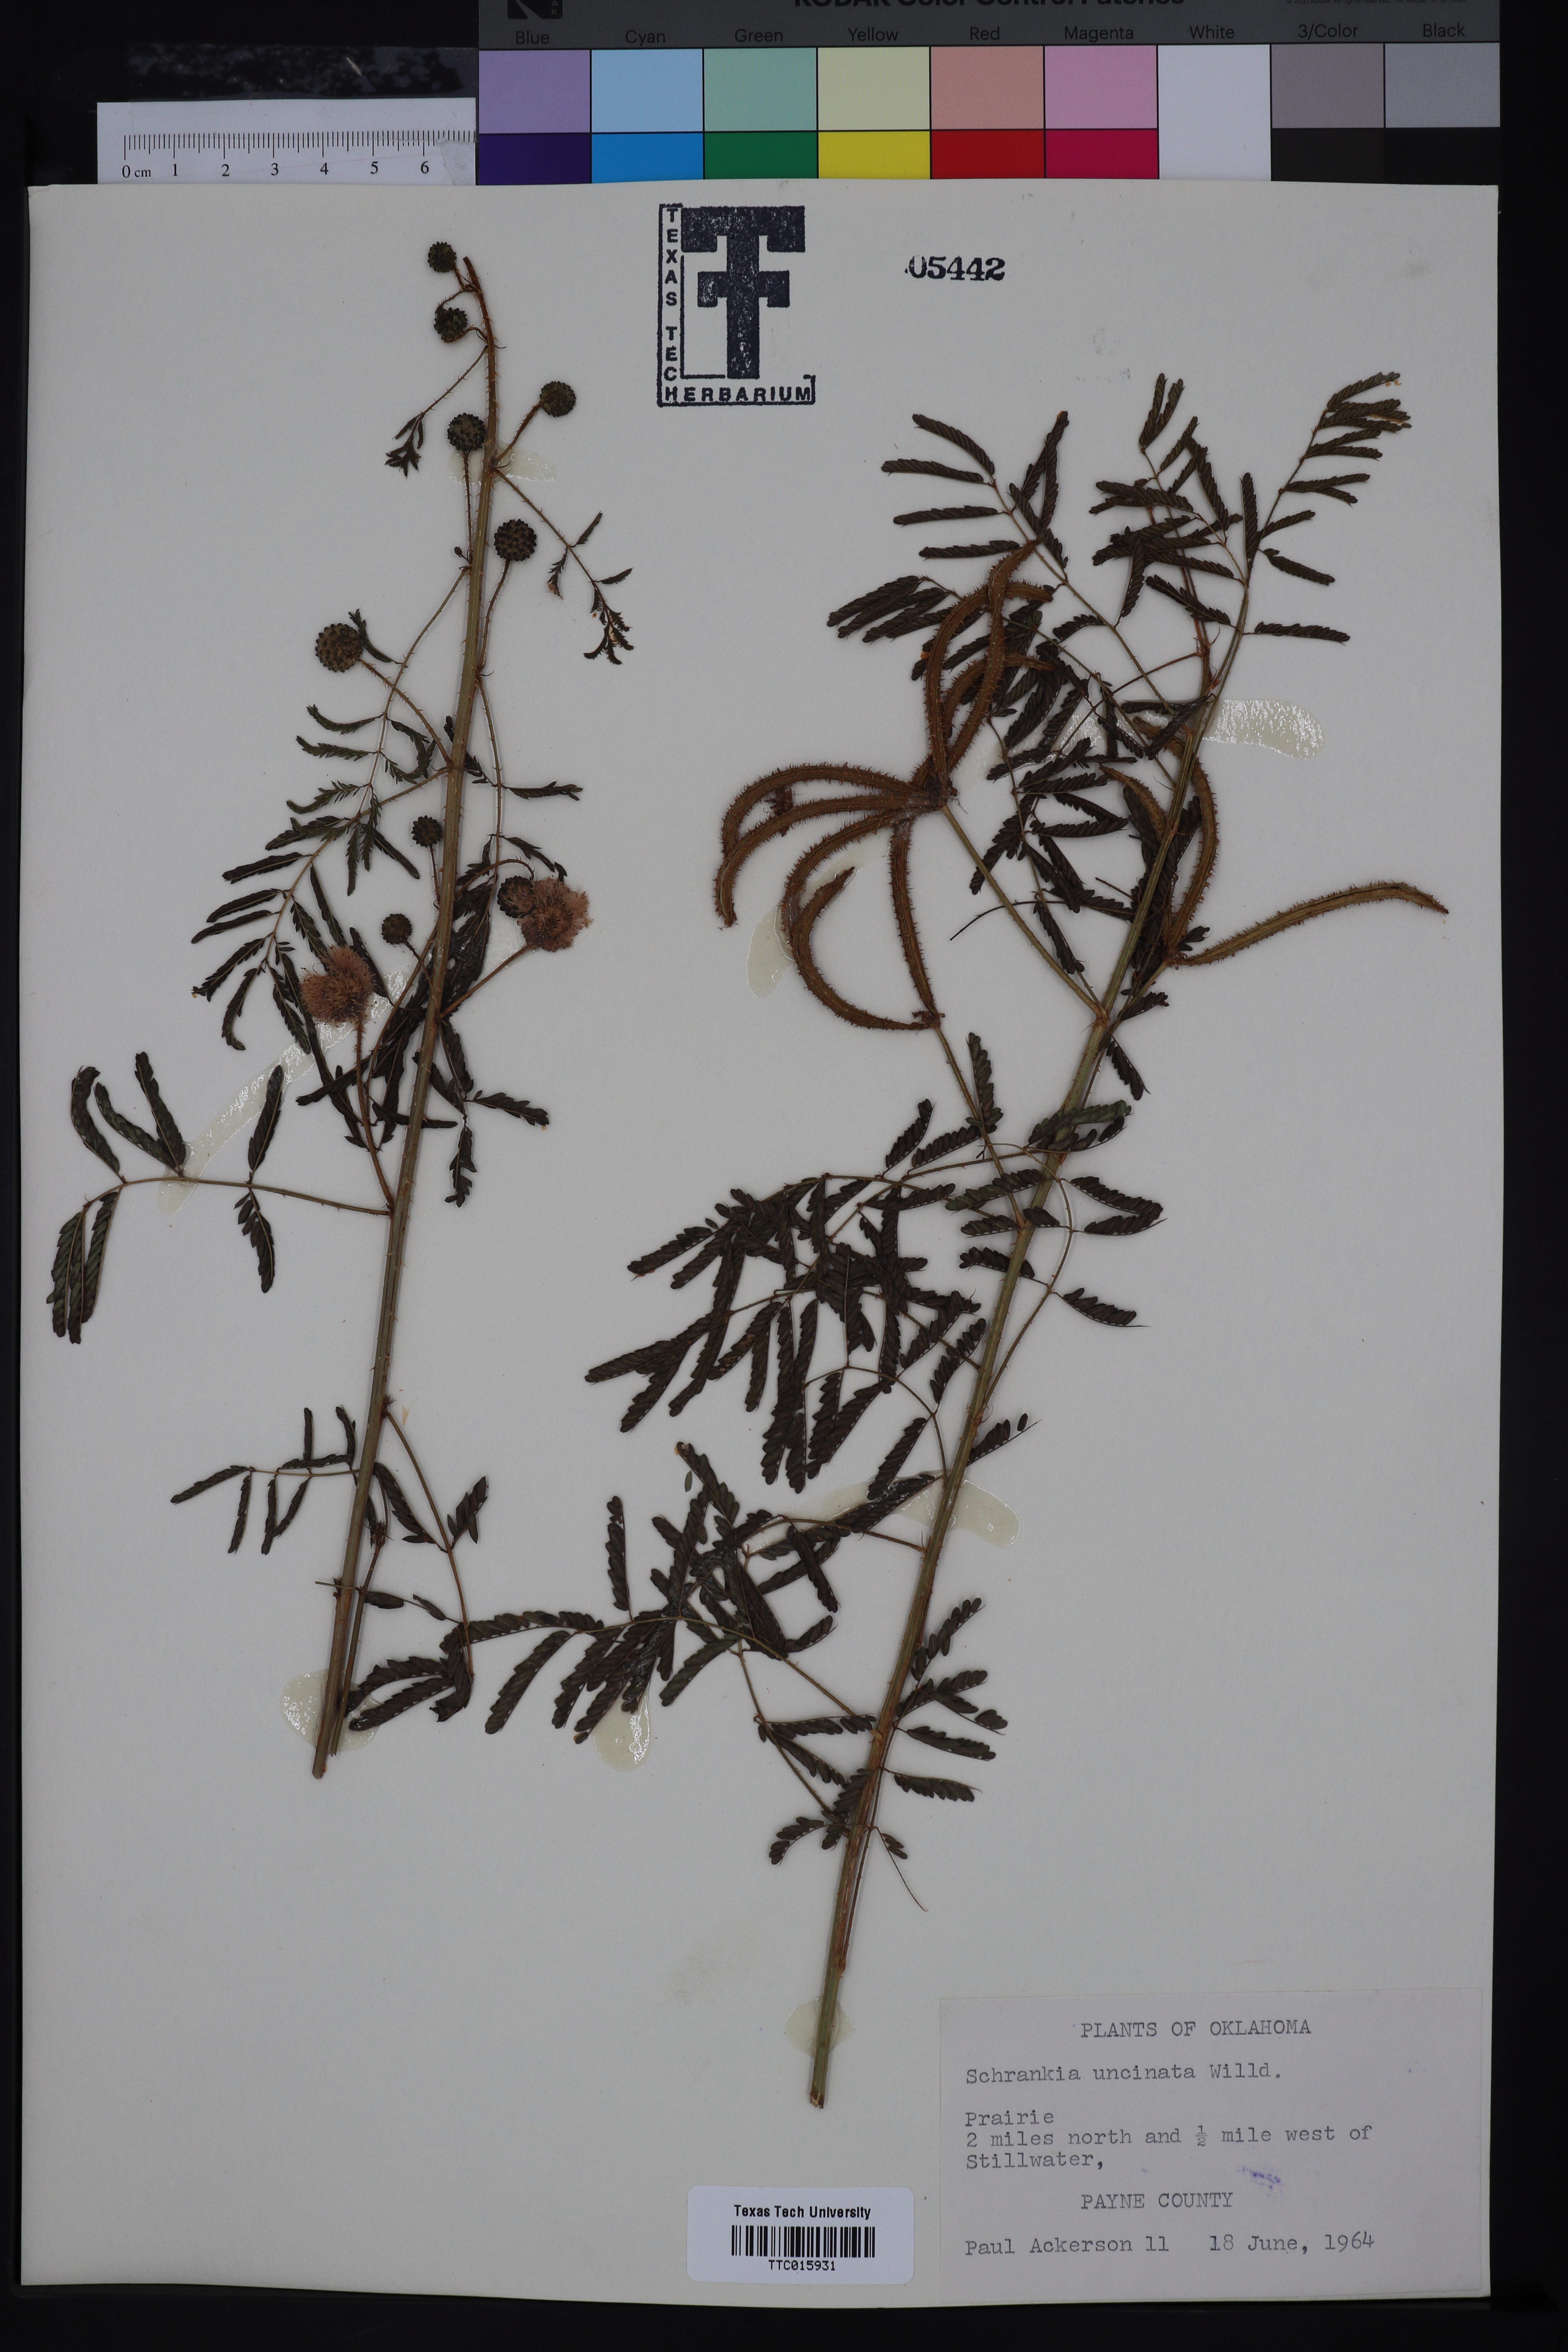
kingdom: Plantae
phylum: Tracheophyta
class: Magnoliopsida
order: Fabales
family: Fabaceae
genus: Mimosa
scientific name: Mimosa quadrivalvis
